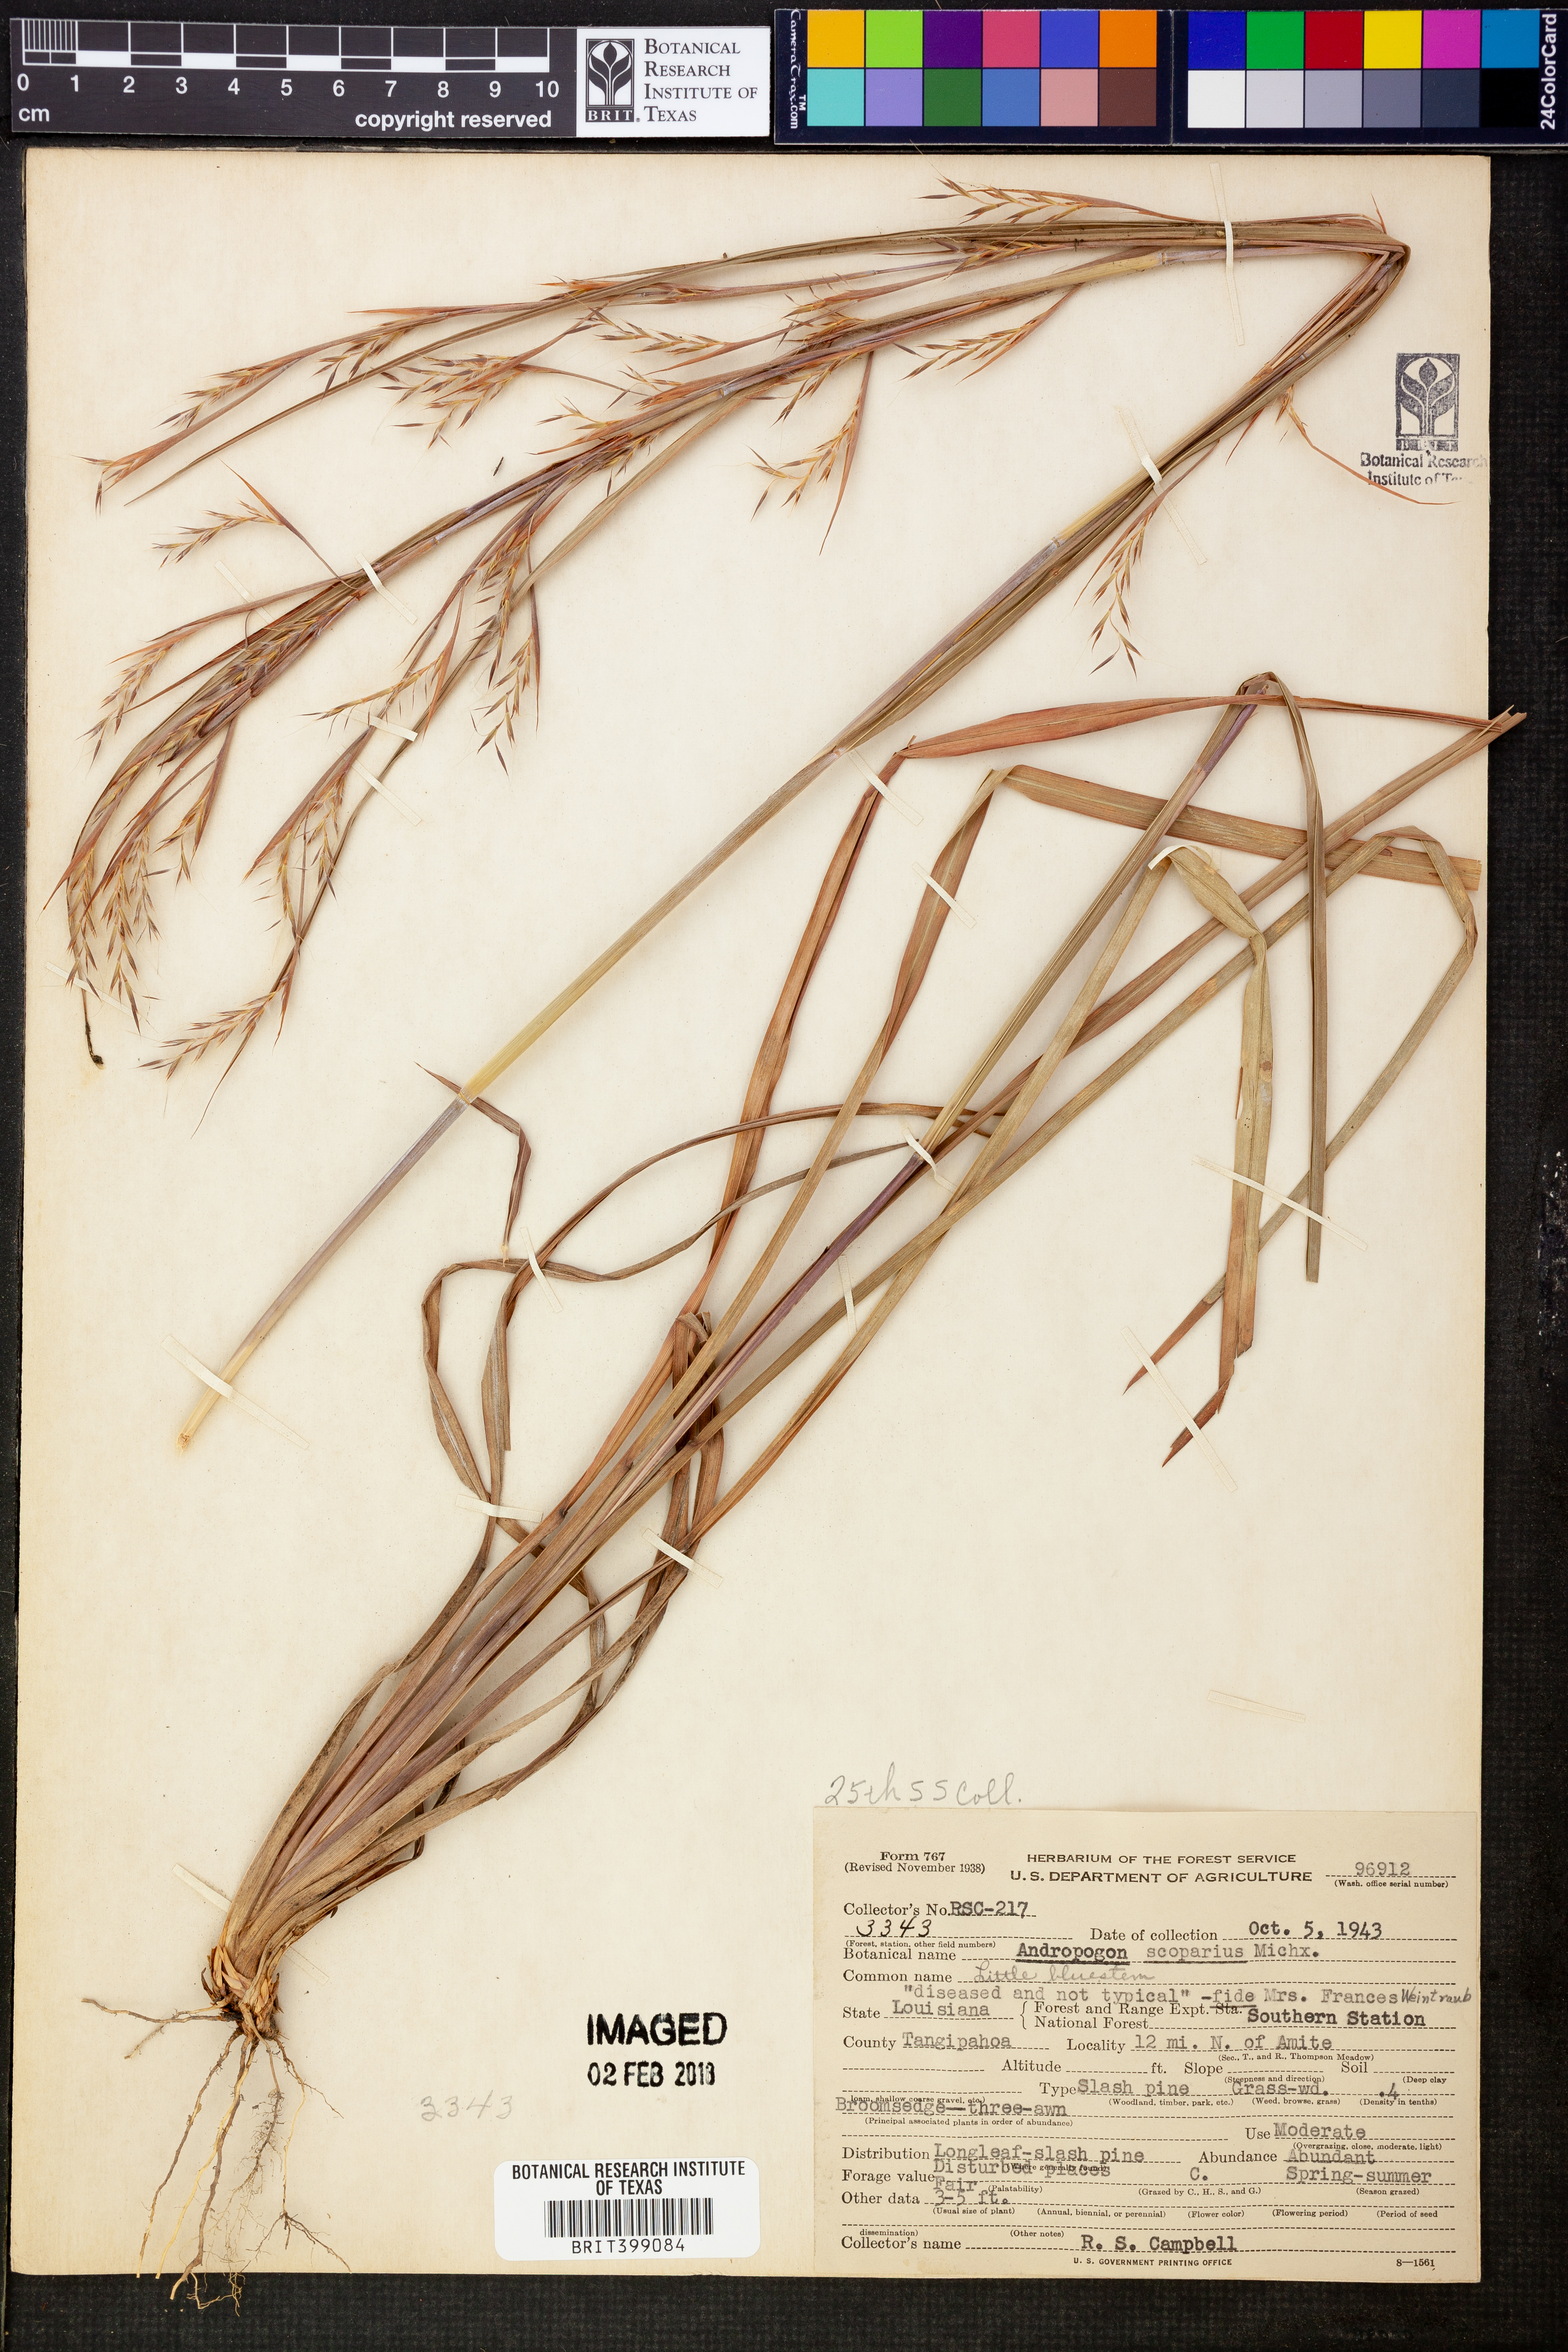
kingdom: Plantae
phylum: Tracheophyta
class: Liliopsida
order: Poales
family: Poaceae
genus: Schizachyrium
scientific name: Schizachyrium scoparium
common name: Little bluestem
